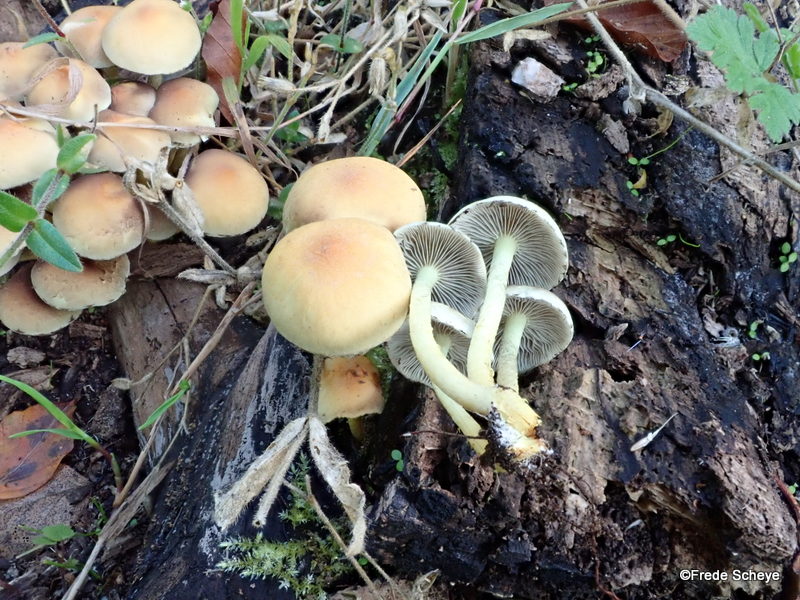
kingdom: Fungi
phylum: Basidiomycota
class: Agaricomycetes
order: Agaricales
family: Strophariaceae
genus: Hypholoma
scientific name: Hypholoma fasciculare
